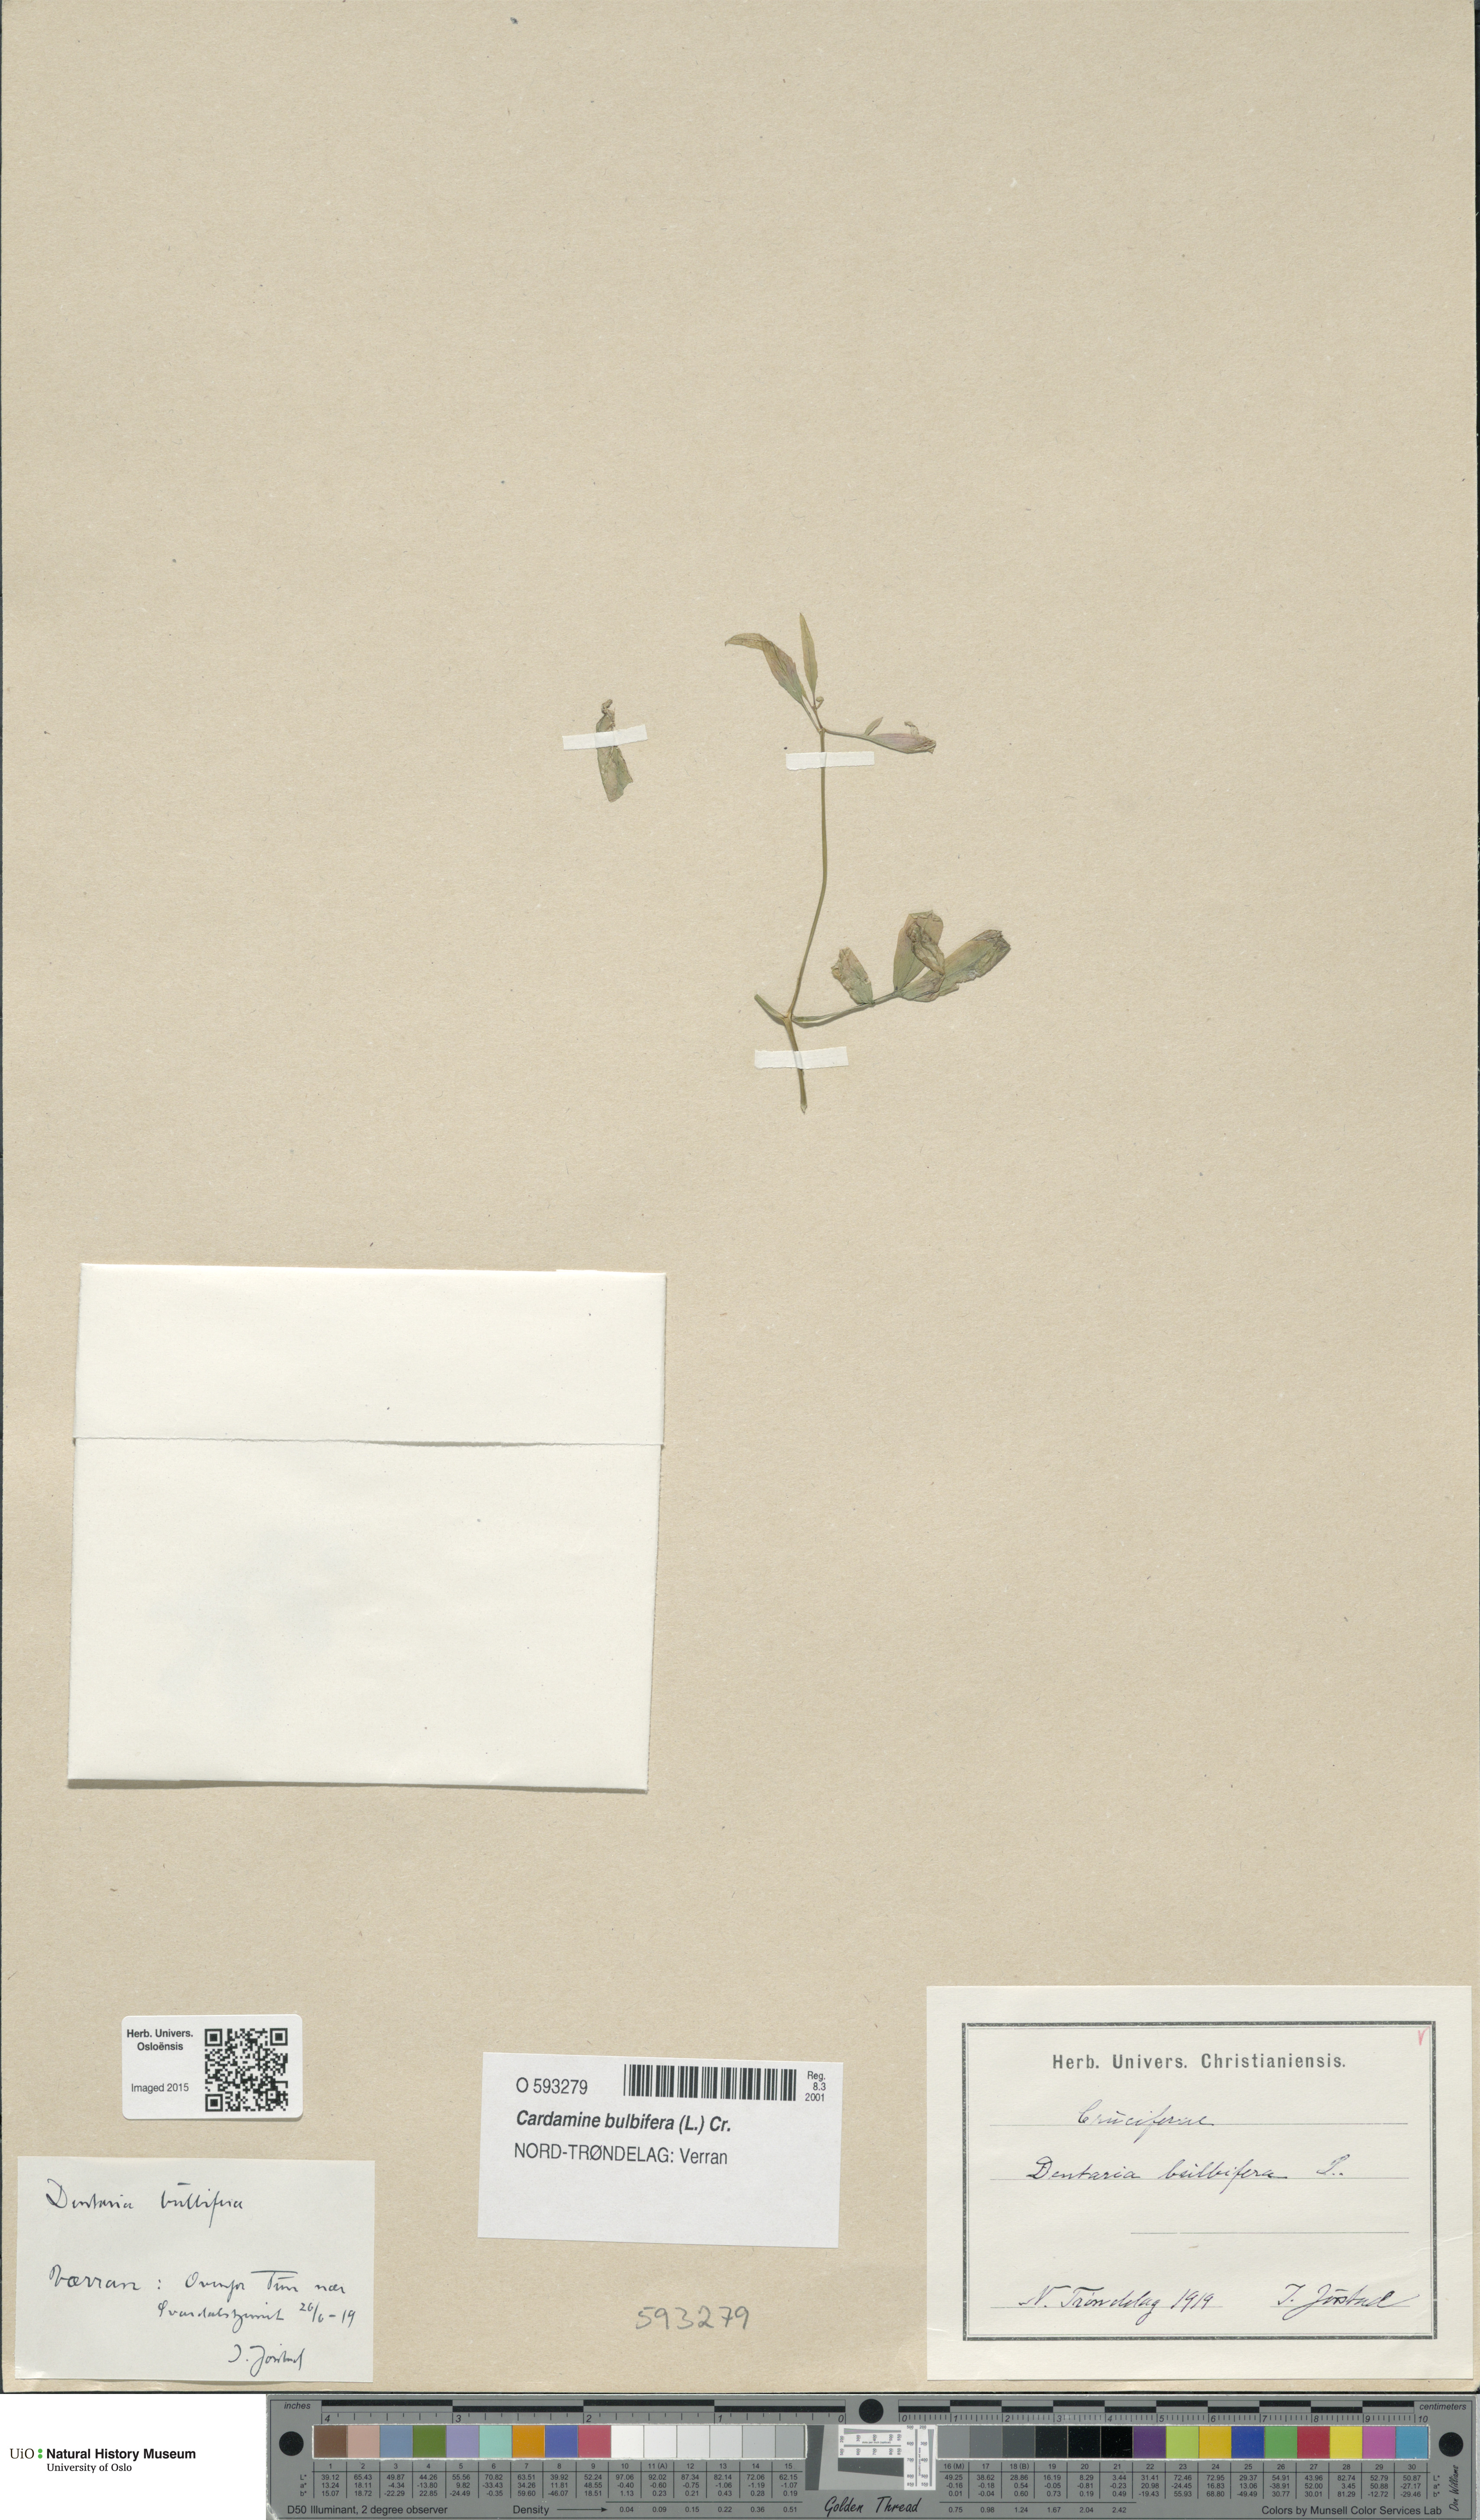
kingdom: Plantae
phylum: Tracheophyta
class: Magnoliopsida
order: Brassicales
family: Brassicaceae
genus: Cardamine
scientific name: Cardamine bulbifera
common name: Coralroot bittercress
